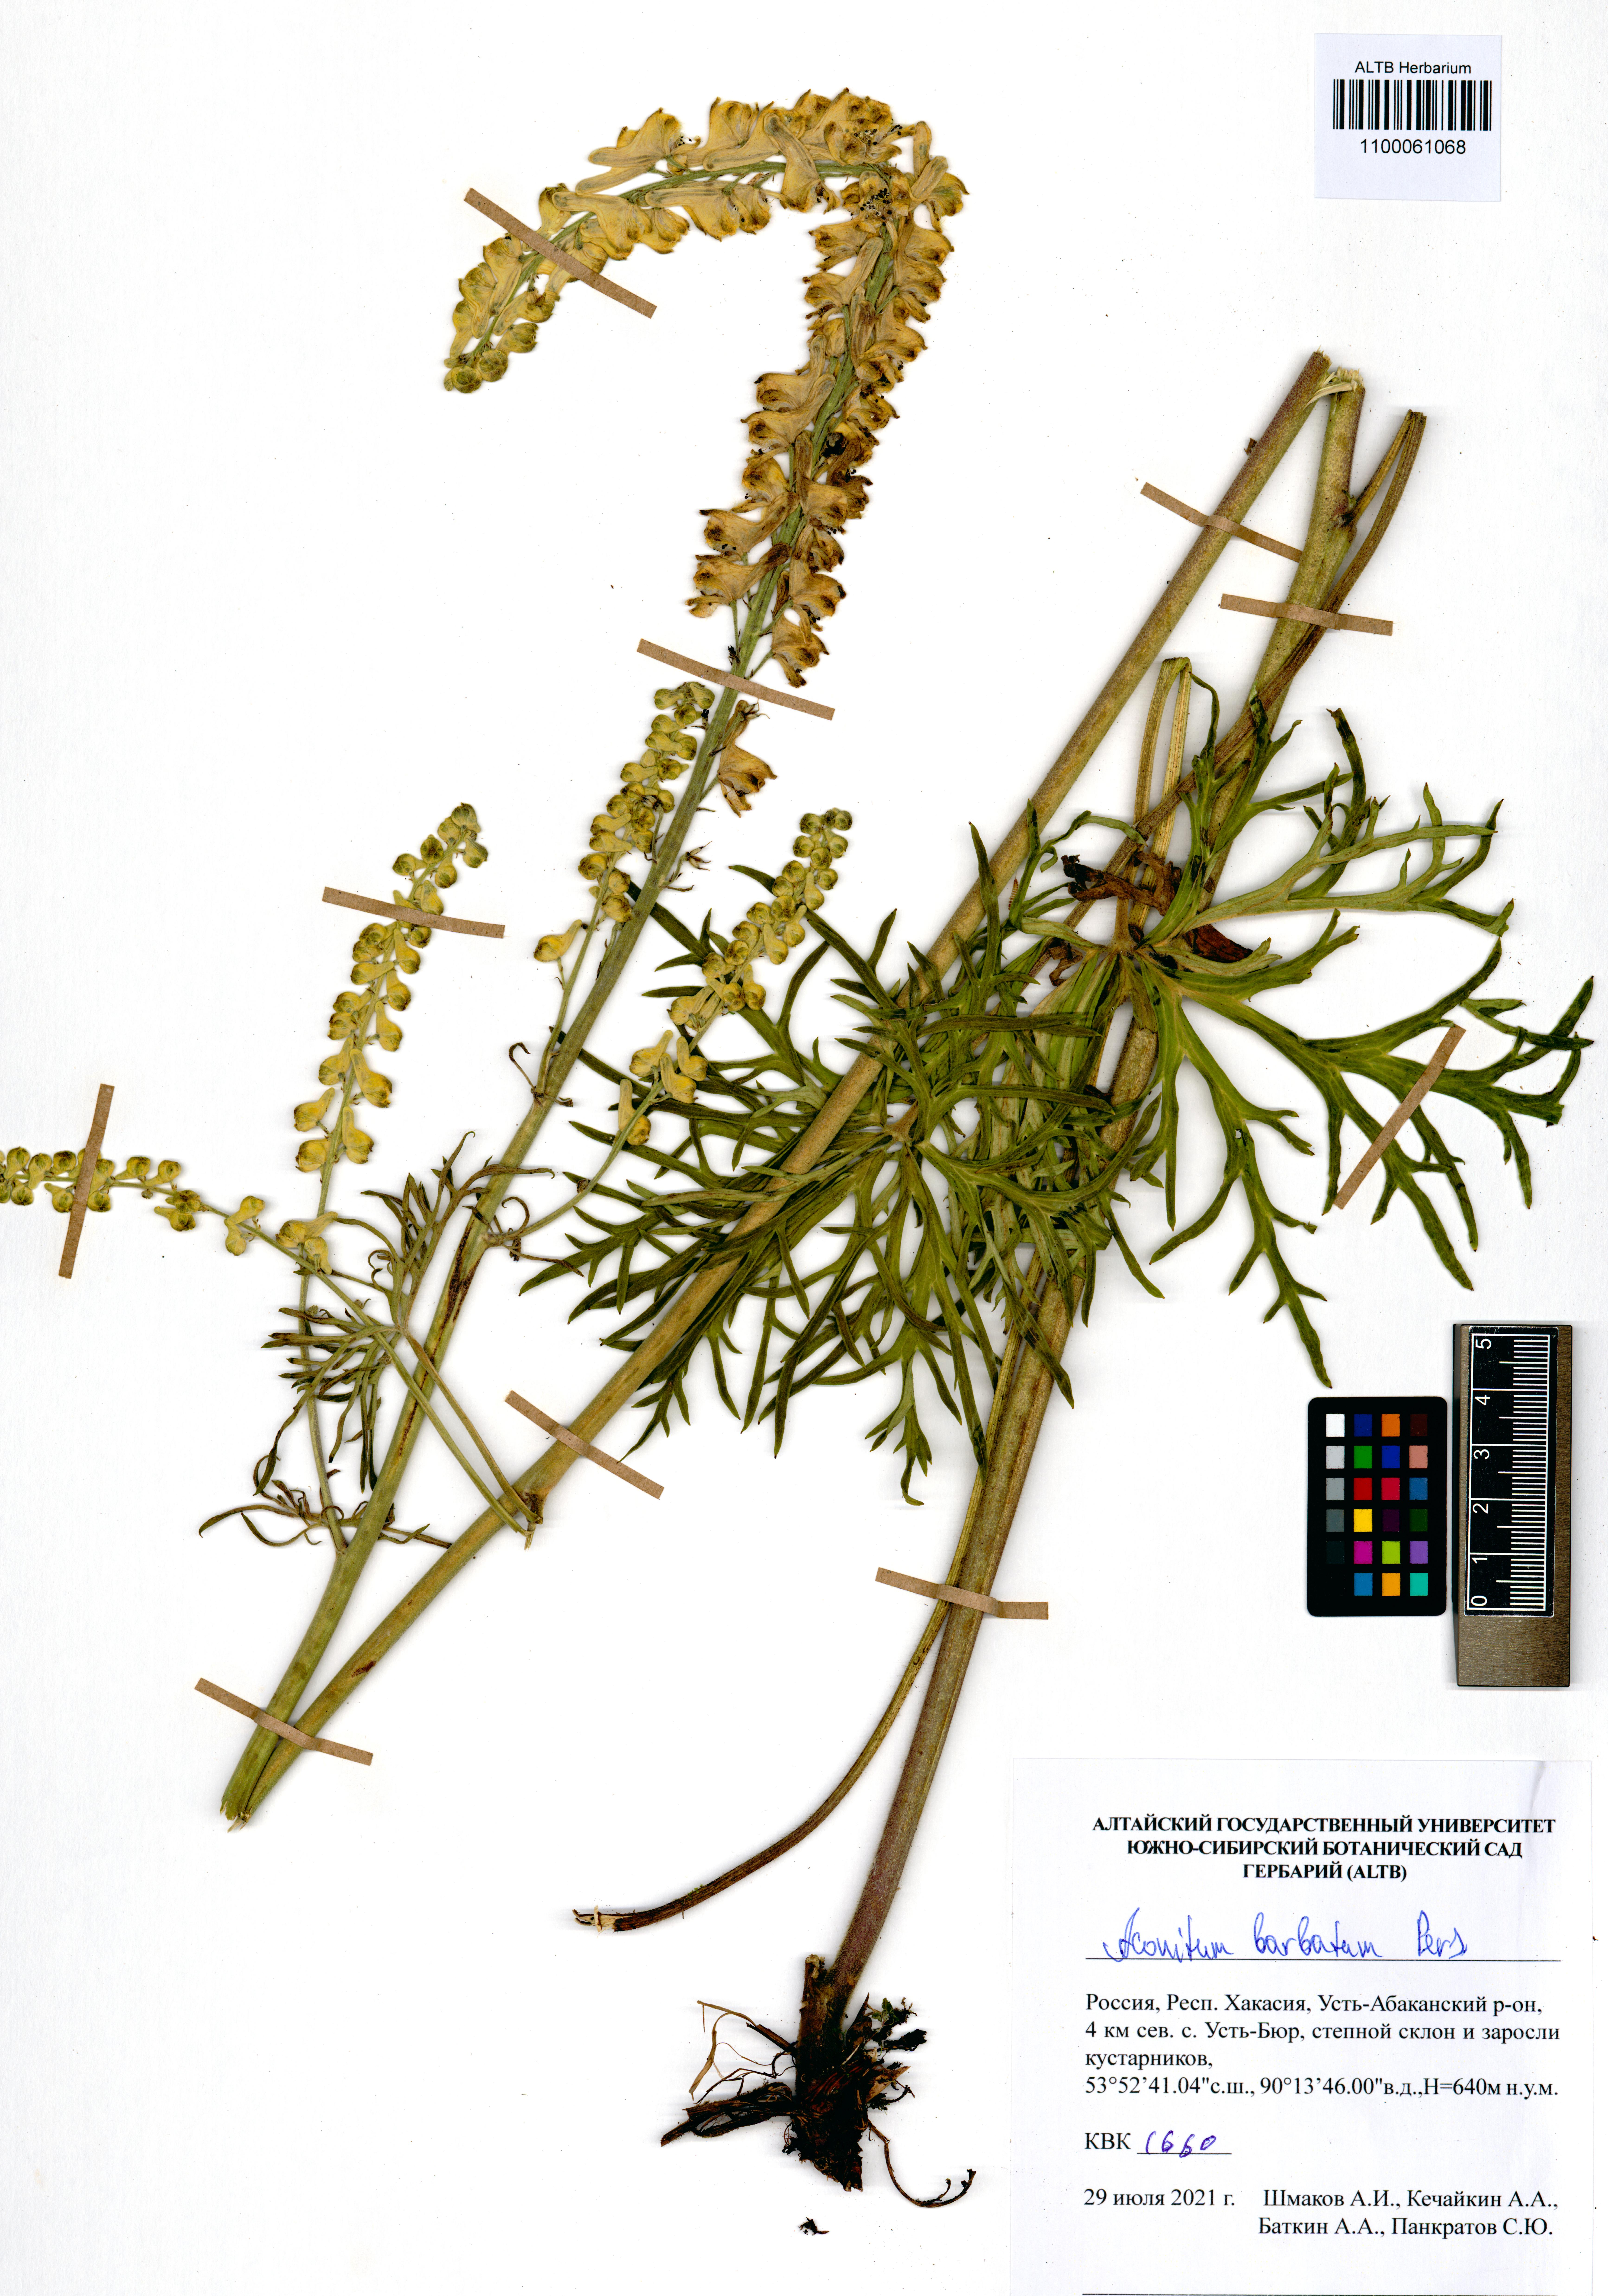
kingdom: Plantae
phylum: Tracheophyta
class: Magnoliopsida
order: Ranunculales
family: Ranunculaceae
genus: Aconitum
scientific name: Aconitum barbatum
